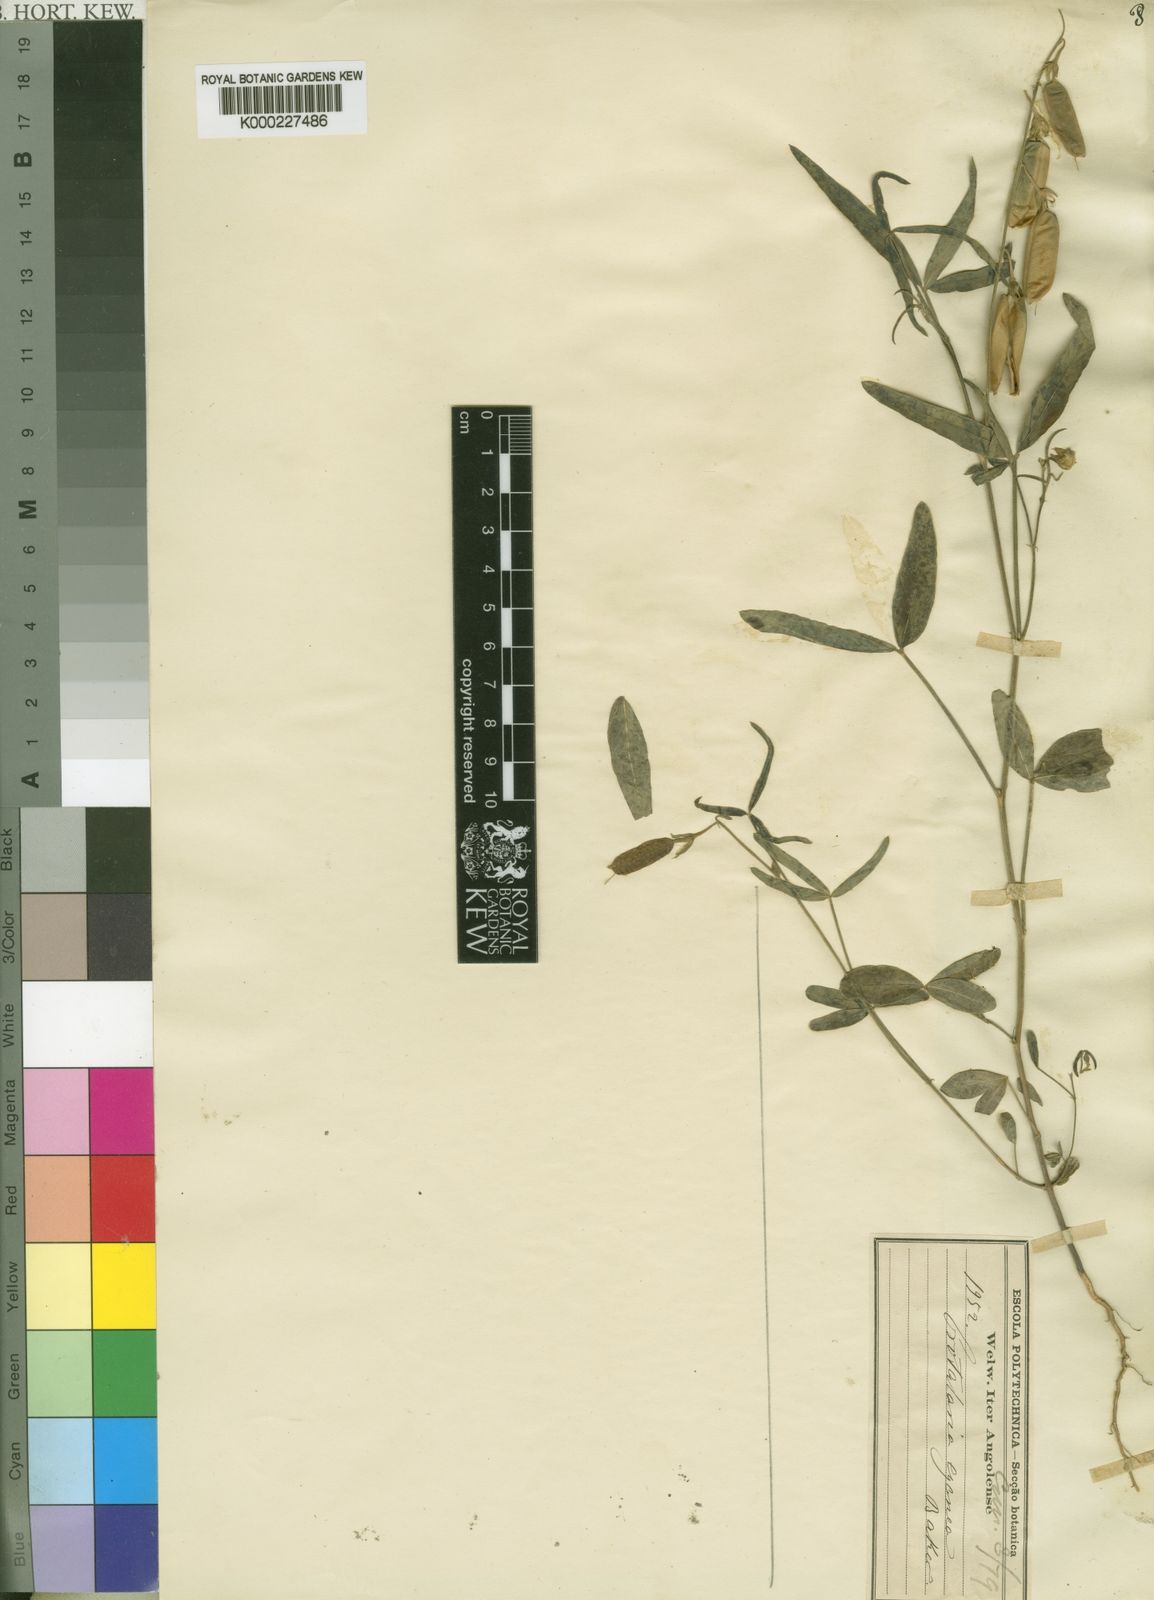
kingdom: Plantae
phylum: Tracheophyta
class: Magnoliopsida
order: Fabales
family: Fabaceae
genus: Crotalaria
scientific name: Crotalaria cyanea
